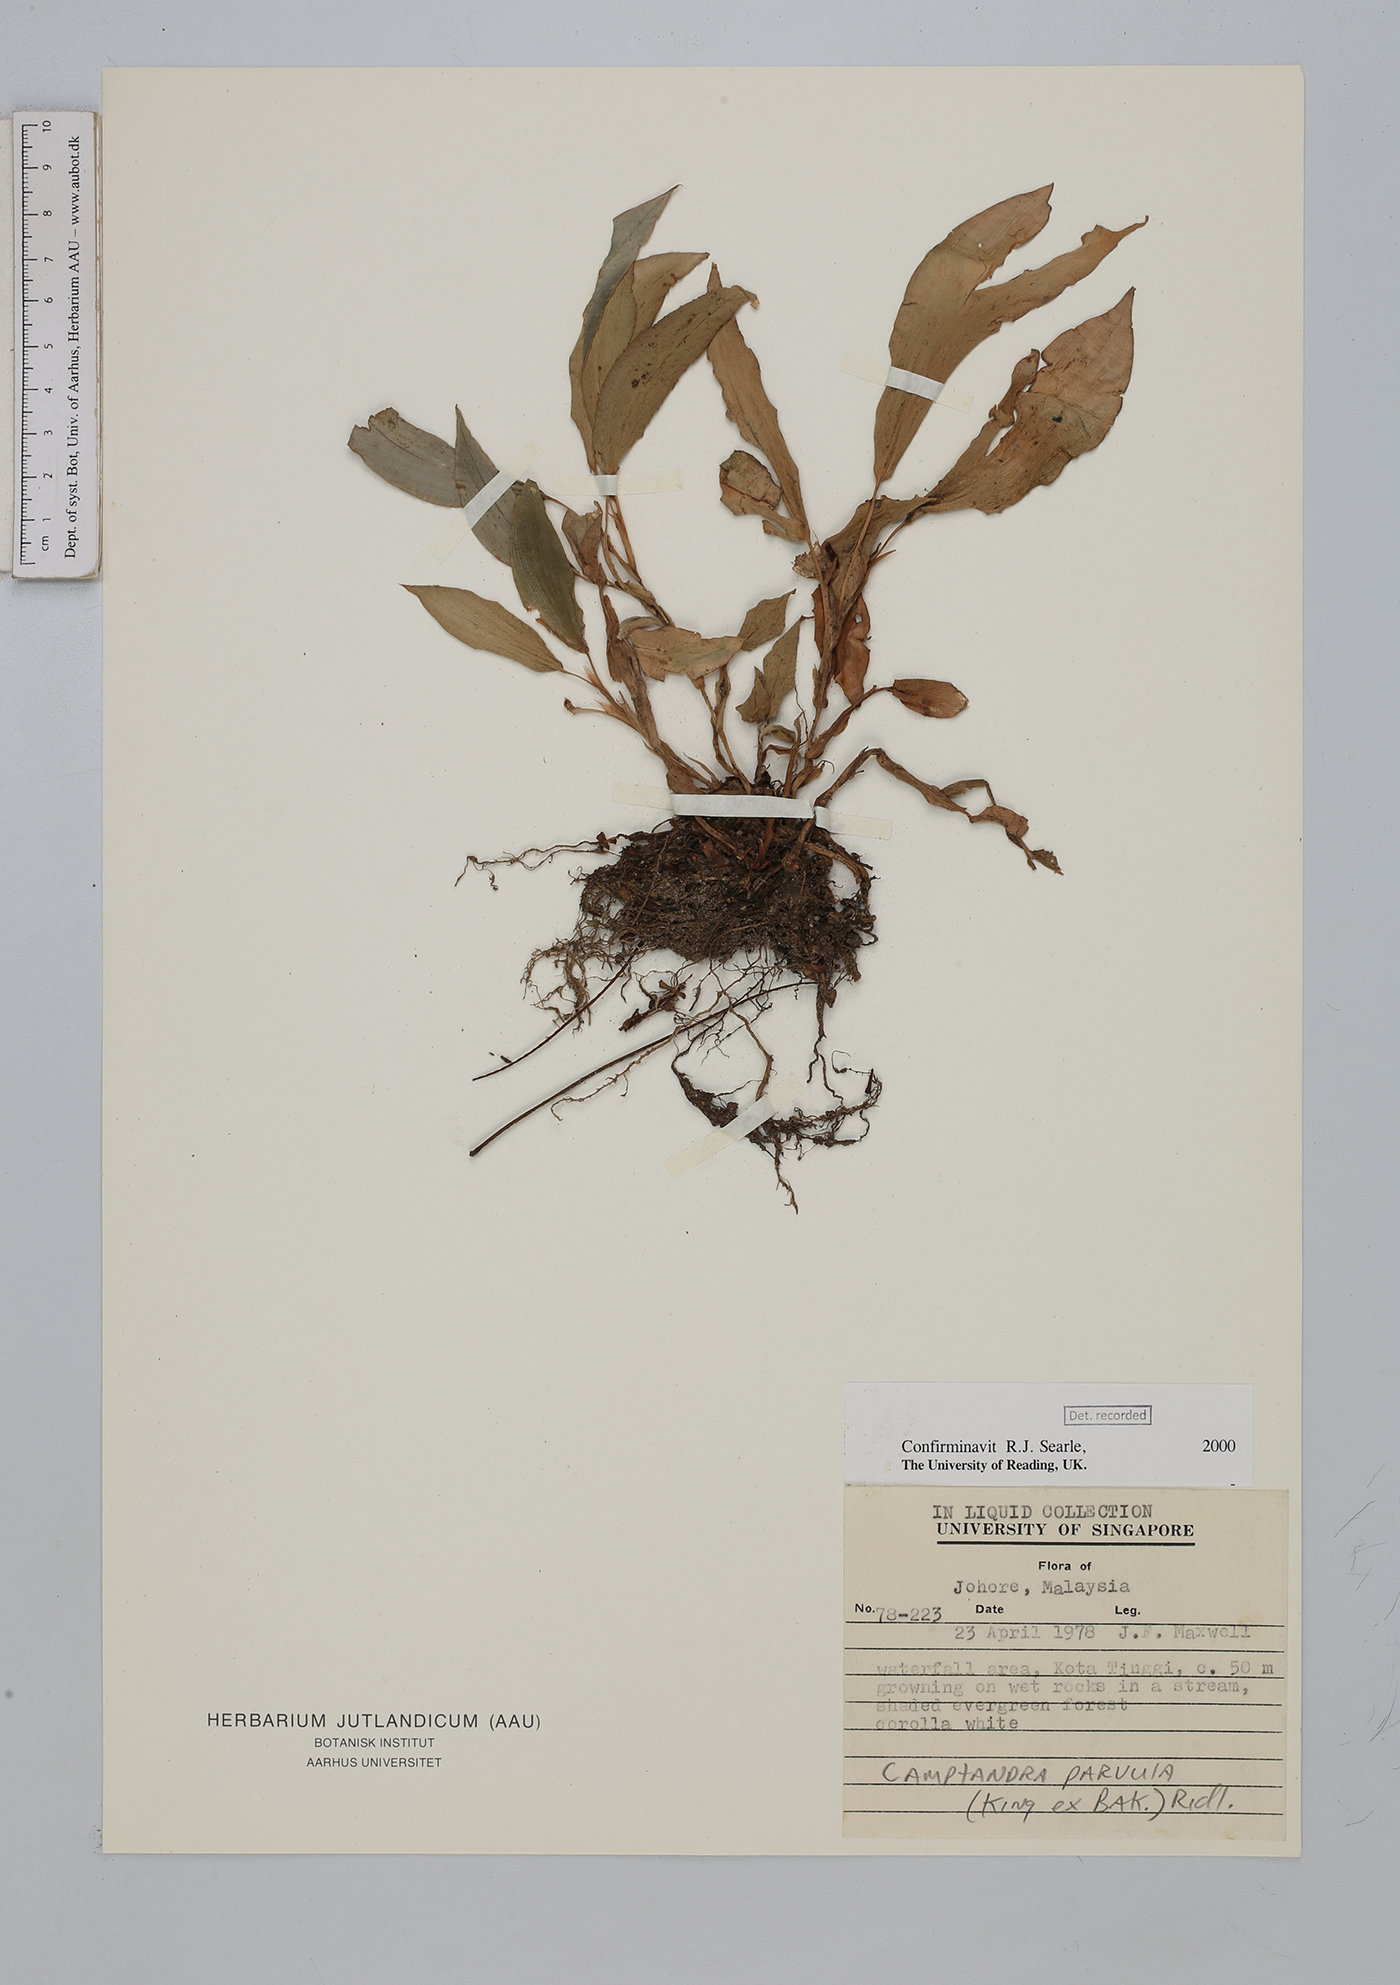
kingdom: Plantae
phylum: Tracheophyta
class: Liliopsida
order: Zingiberales
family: Zingiberaceae
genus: Camptandra
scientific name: Camptandra parvula
